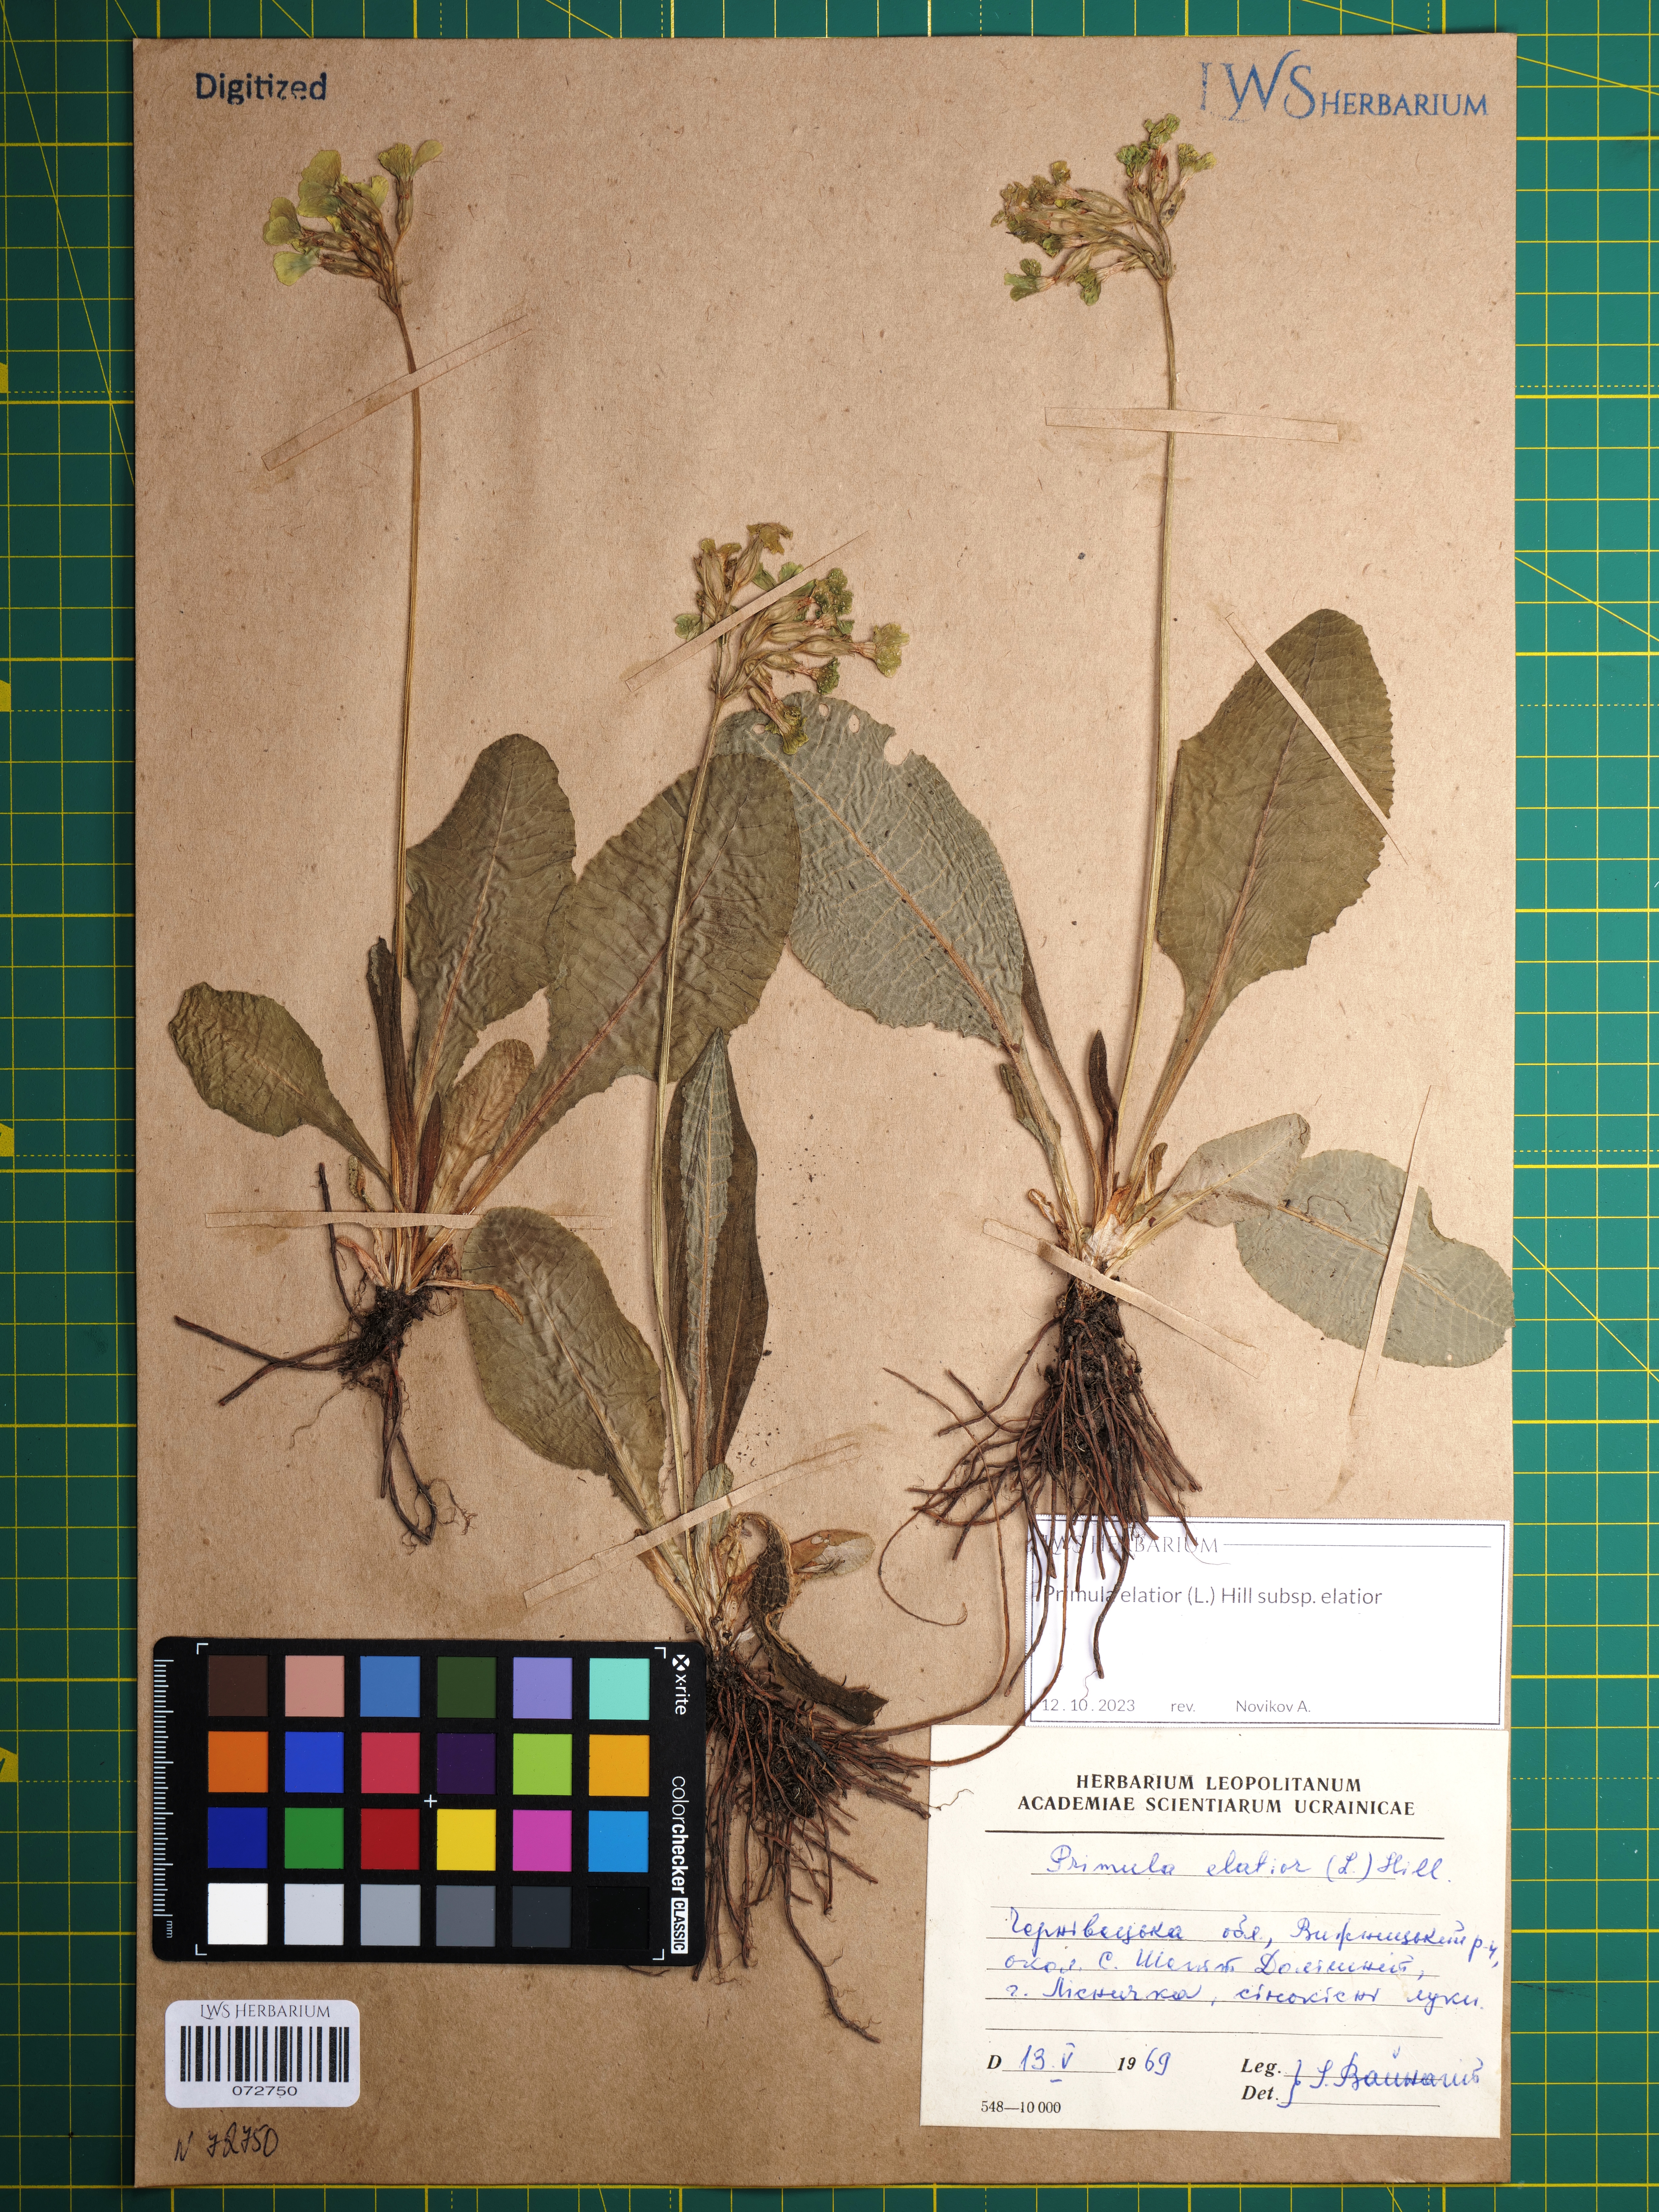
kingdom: Plantae
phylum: Tracheophyta
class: Magnoliopsida
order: Ericales
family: Primulaceae
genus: Primula
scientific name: Primula elatior
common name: Oxlip
